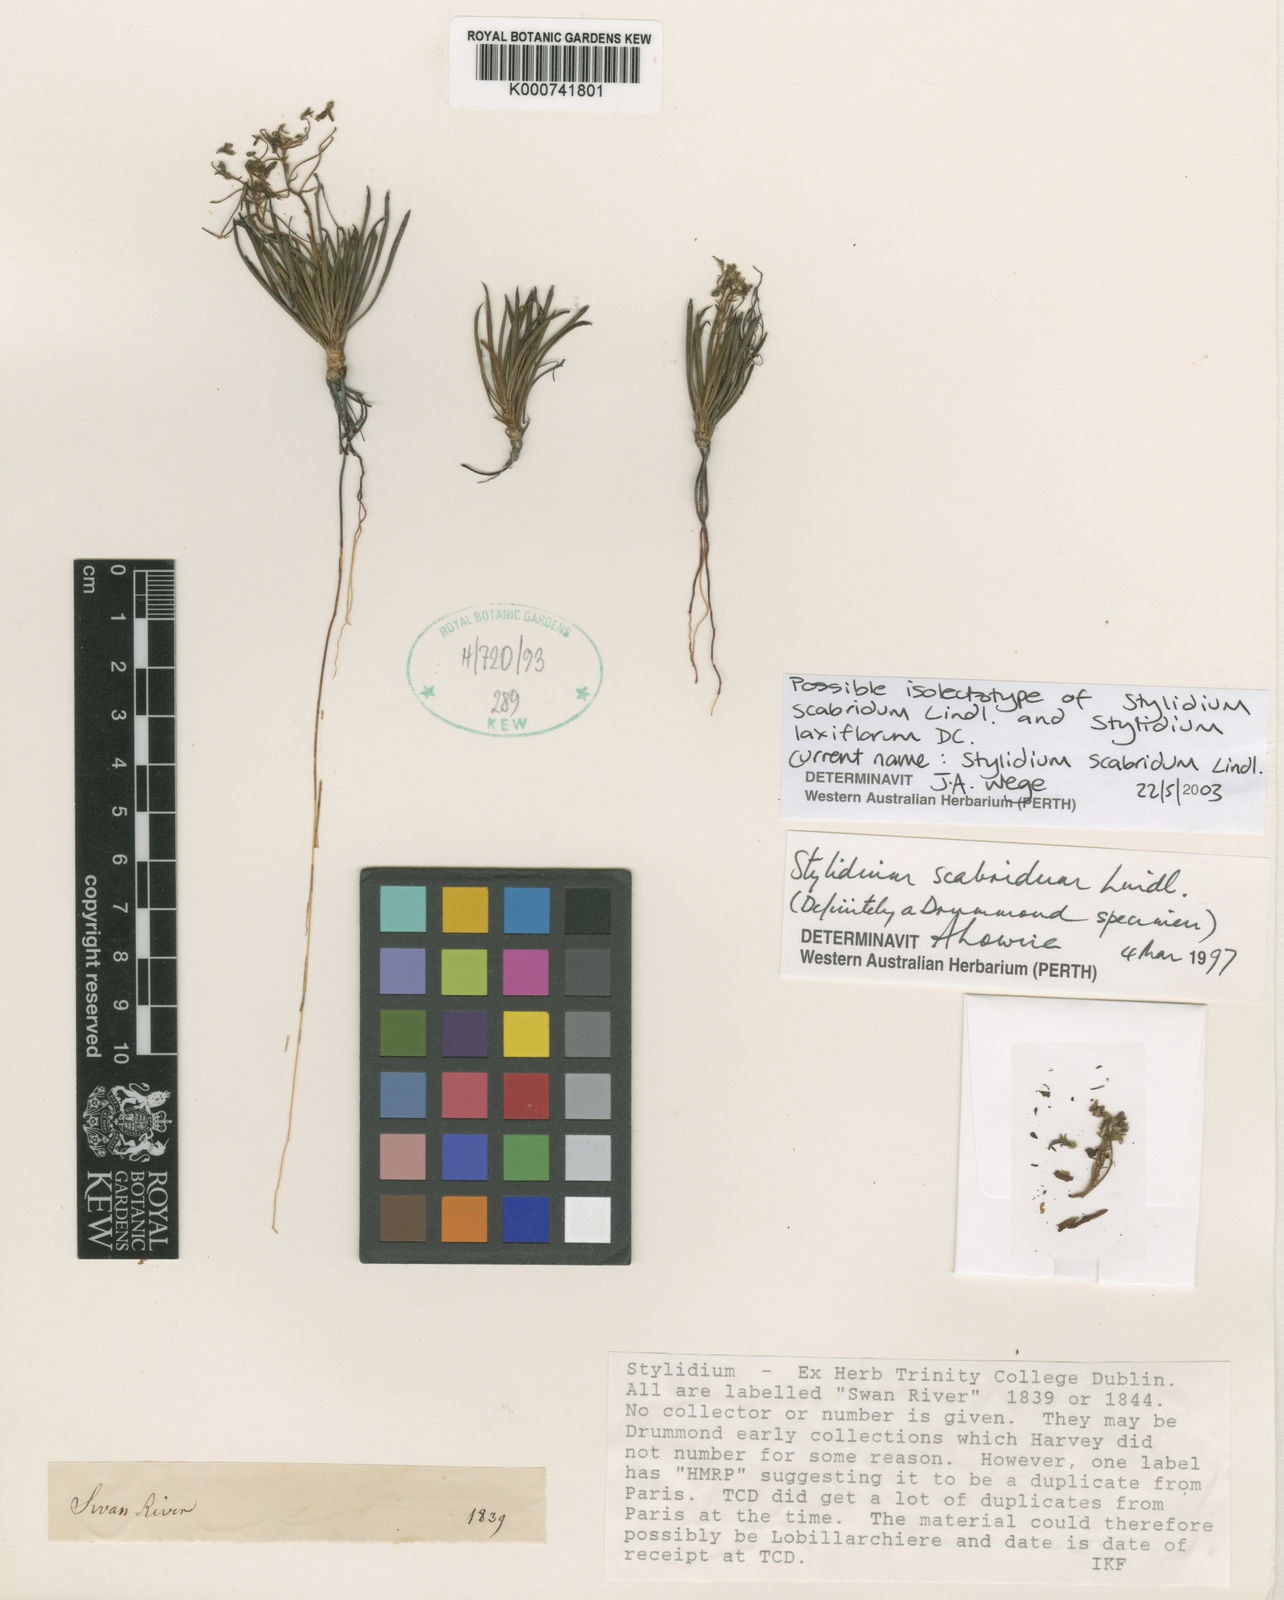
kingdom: Plantae
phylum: Tracheophyta
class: Magnoliopsida
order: Asterales
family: Stylidiaceae
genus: Stylidium
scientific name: Stylidium scabridum
